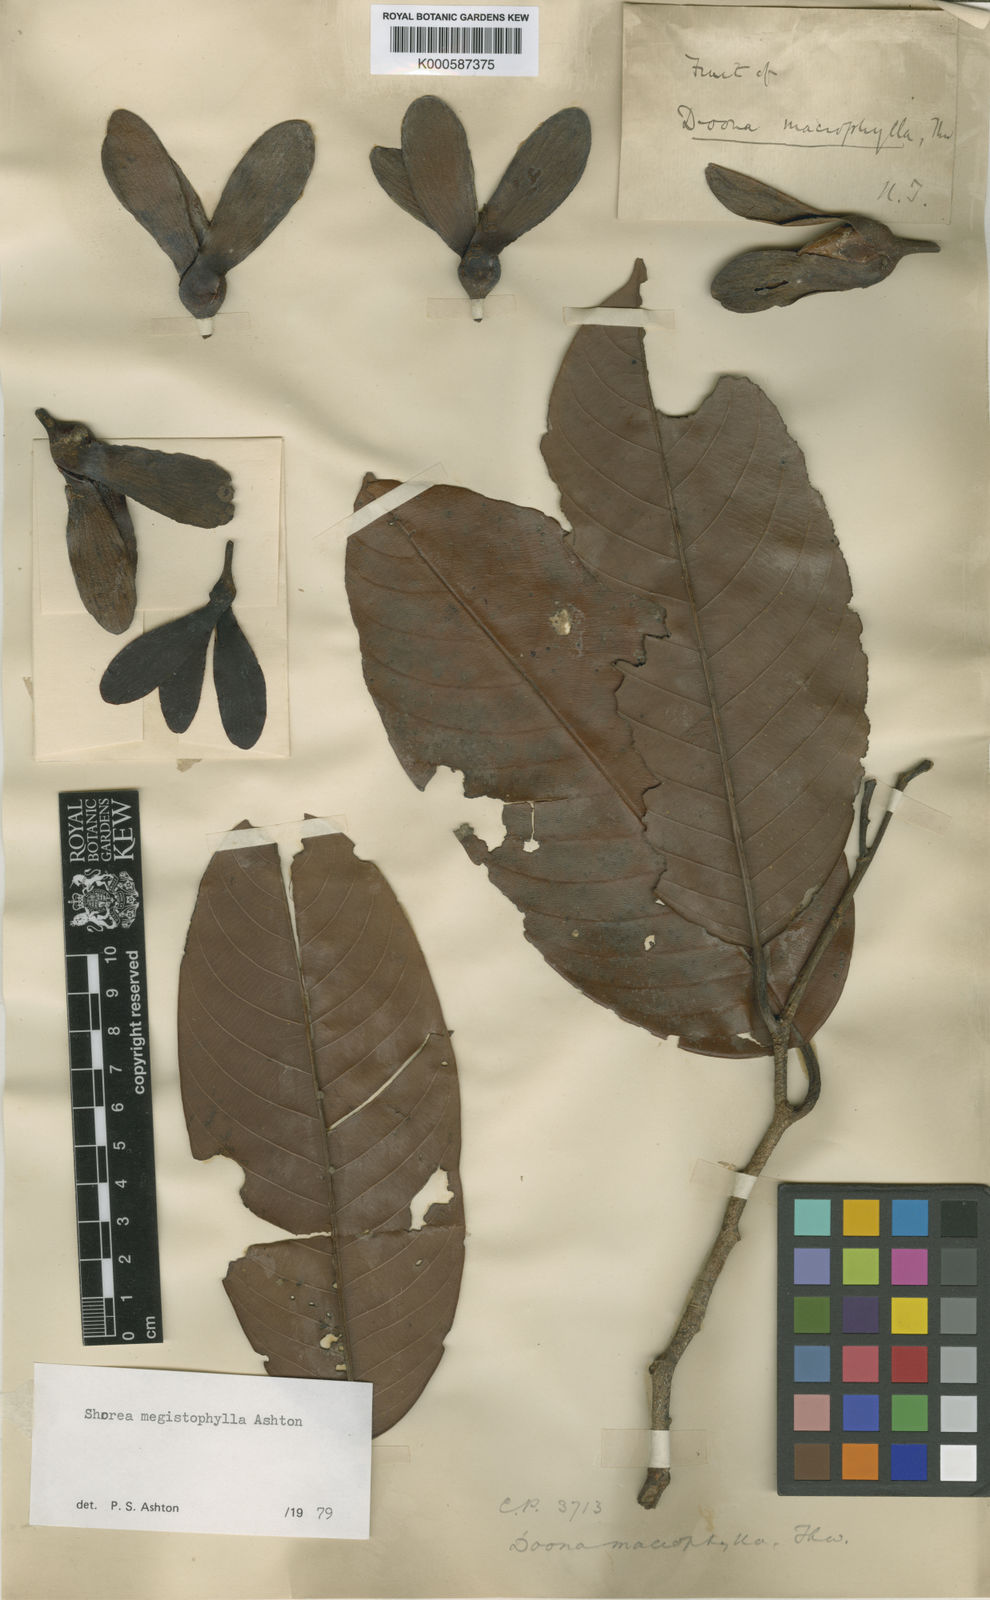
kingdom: Plantae
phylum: Tracheophyta
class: Magnoliopsida
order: Malvales
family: Dipterocarpaceae
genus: Doona
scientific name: Doona macrophylla
